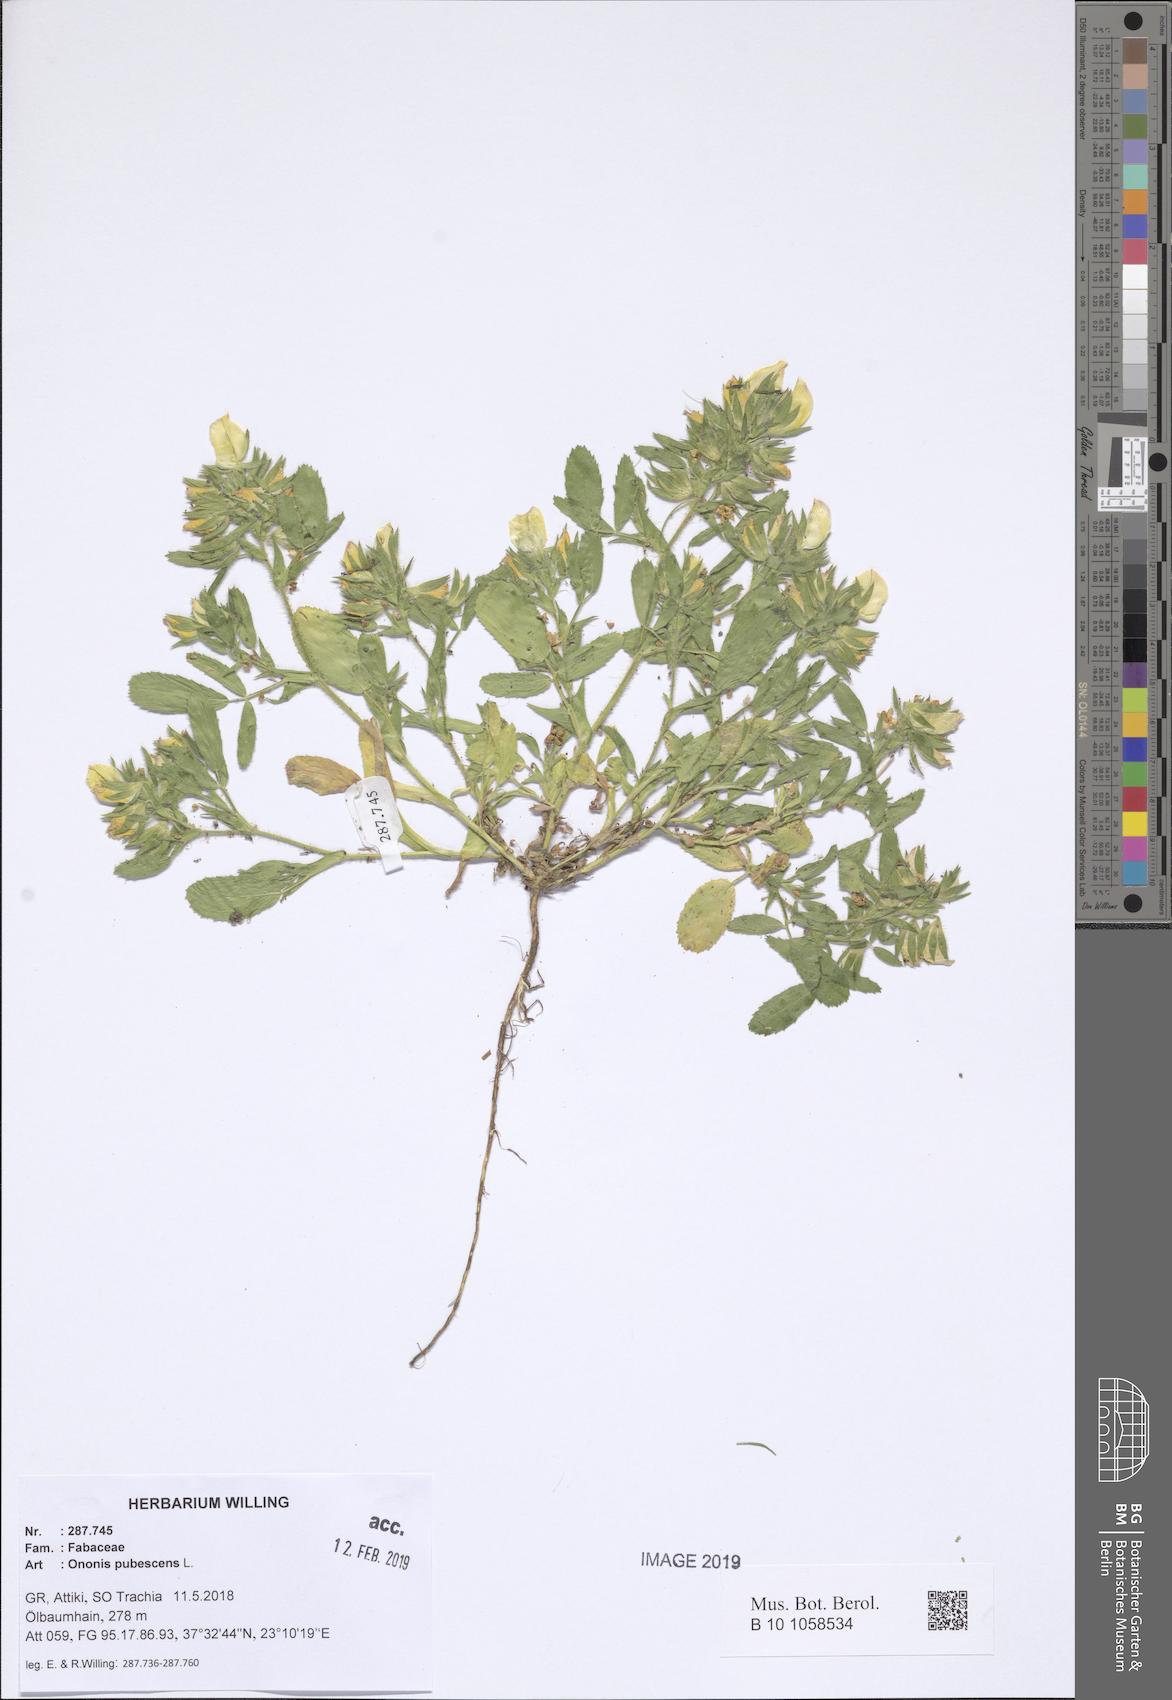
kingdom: Plantae
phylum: Tracheophyta
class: Magnoliopsida
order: Fabales
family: Fabaceae
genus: Ononis
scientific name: Ononis pubescens
